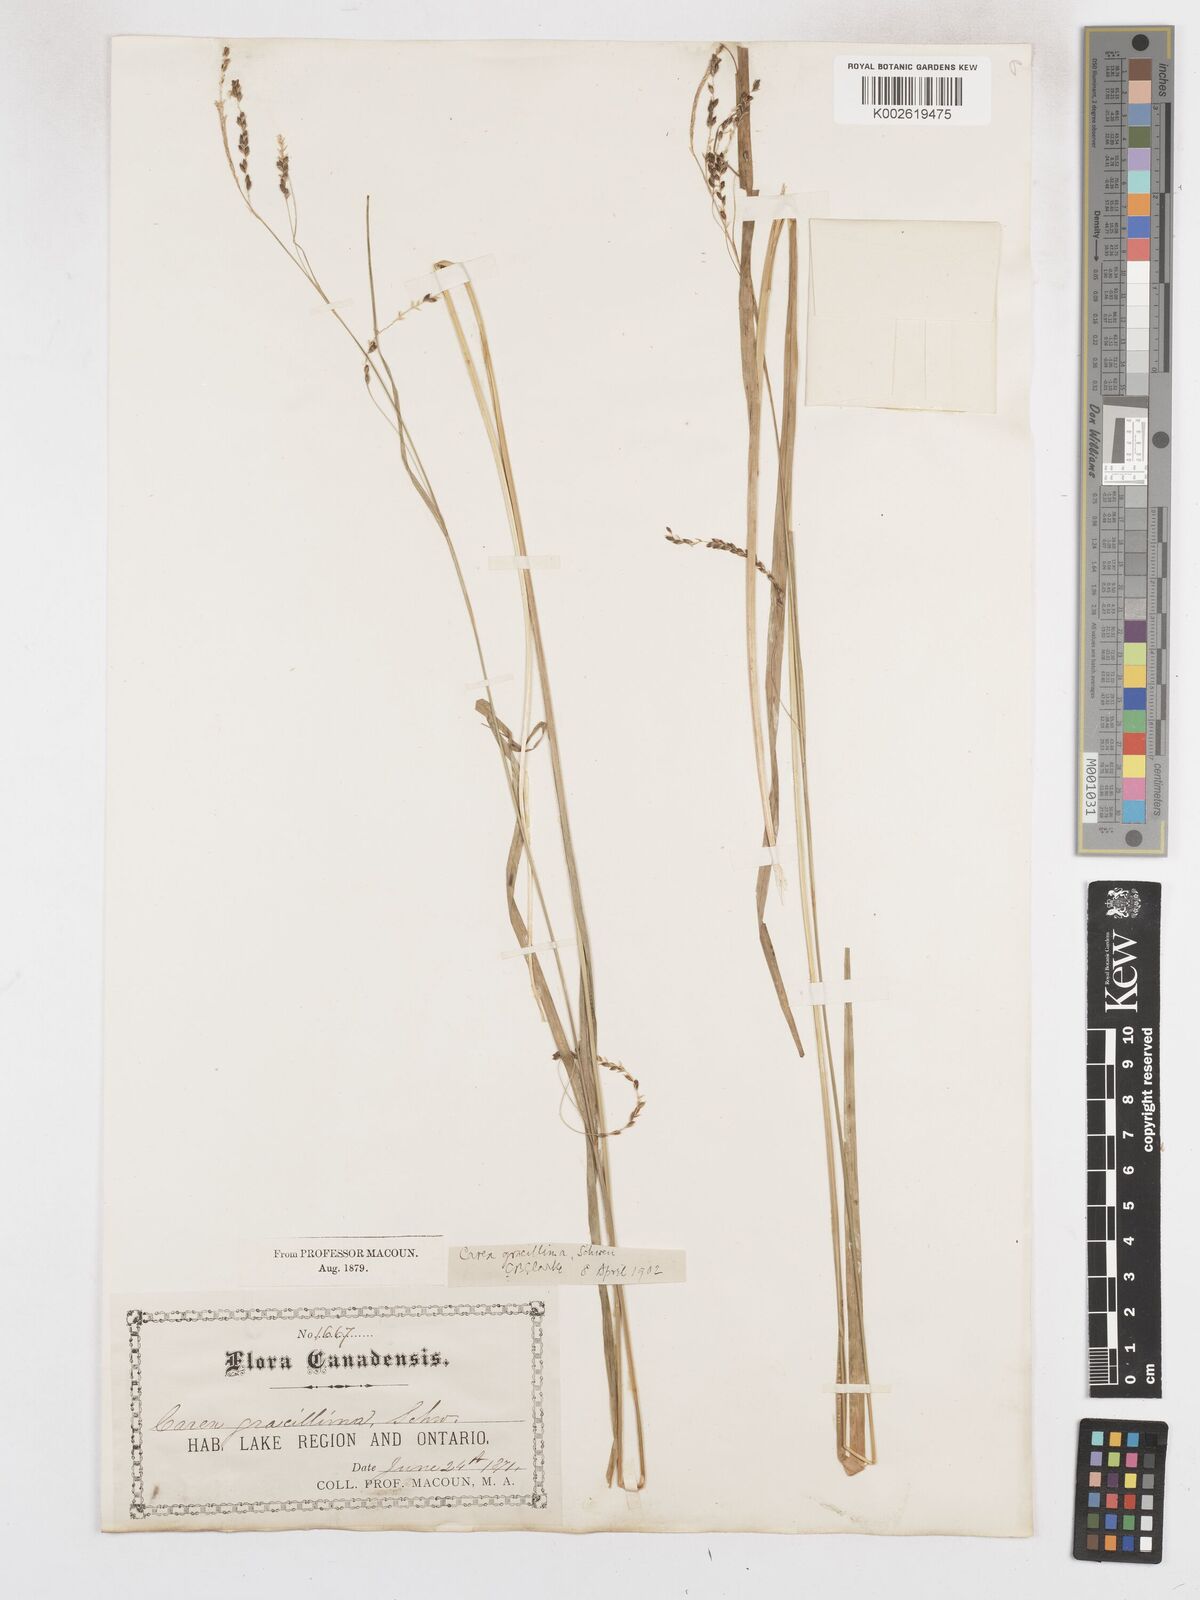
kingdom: Plantae
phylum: Tracheophyta
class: Liliopsida
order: Poales
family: Cyperaceae
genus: Carex
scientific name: Carex gracillima
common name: Graceful sedge
